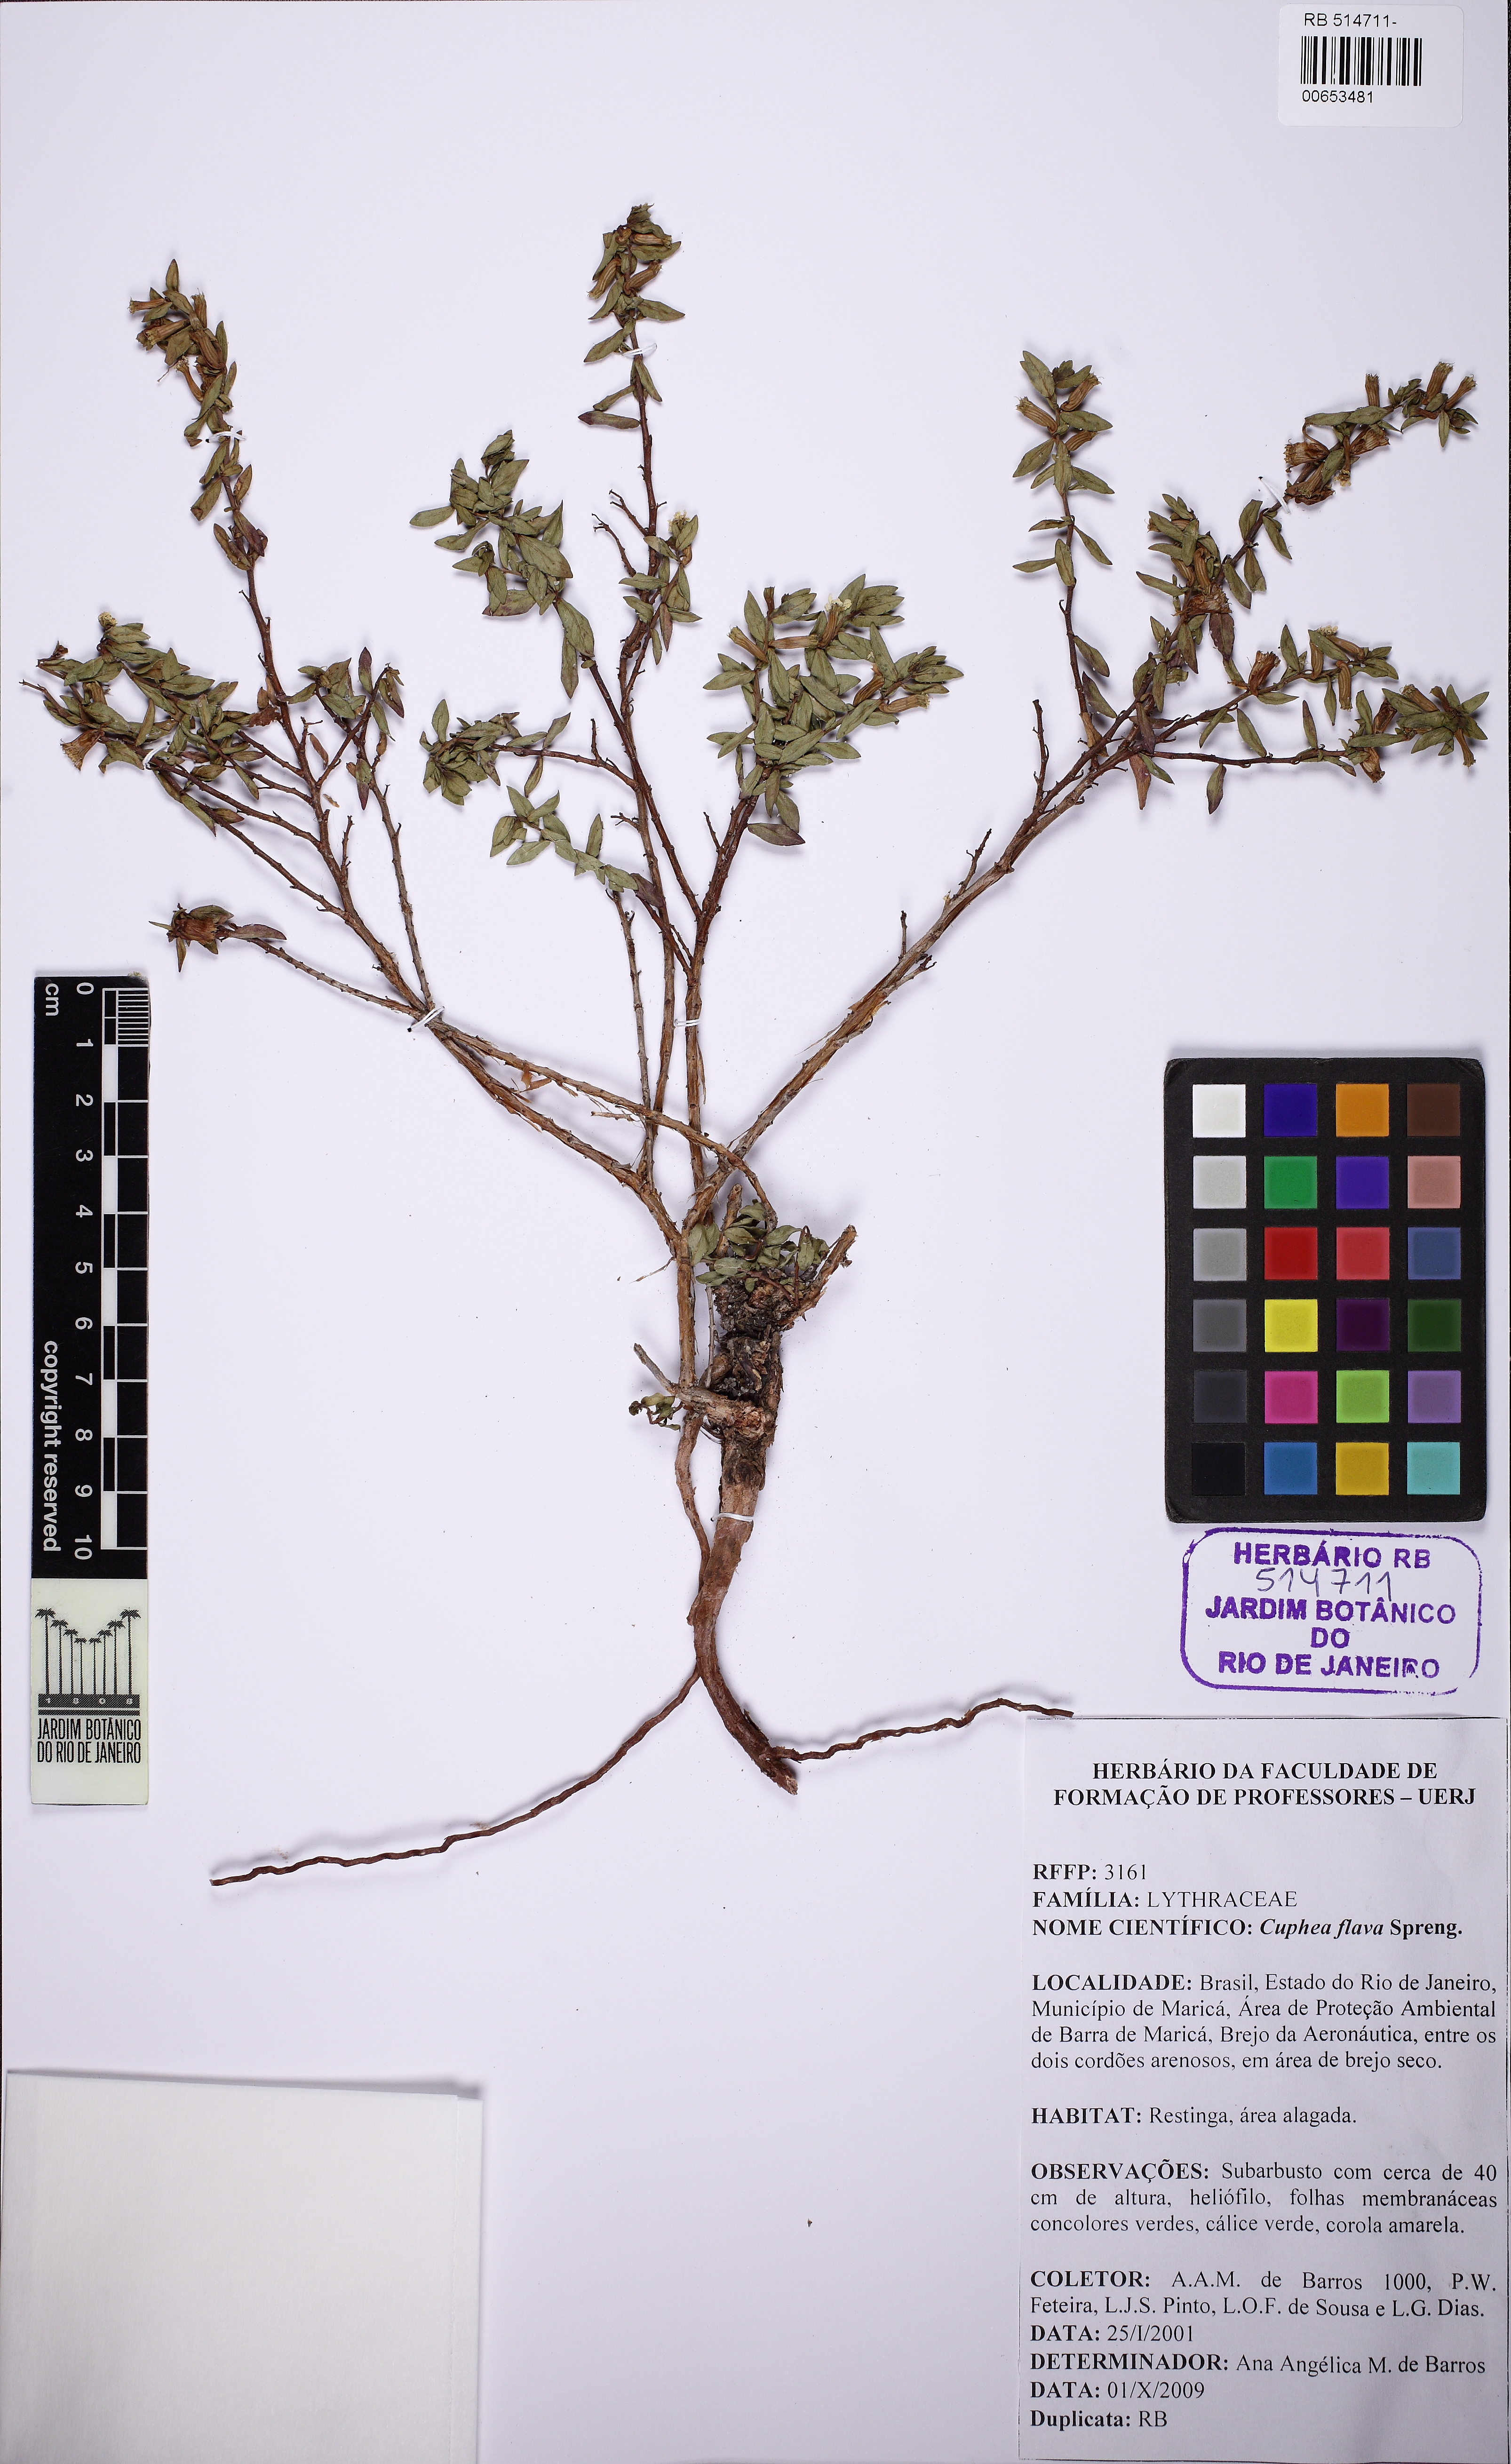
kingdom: Plantae
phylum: Tracheophyta
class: Magnoliopsida
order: Myrtales
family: Lythraceae
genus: Cuphea
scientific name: Cuphea flava
